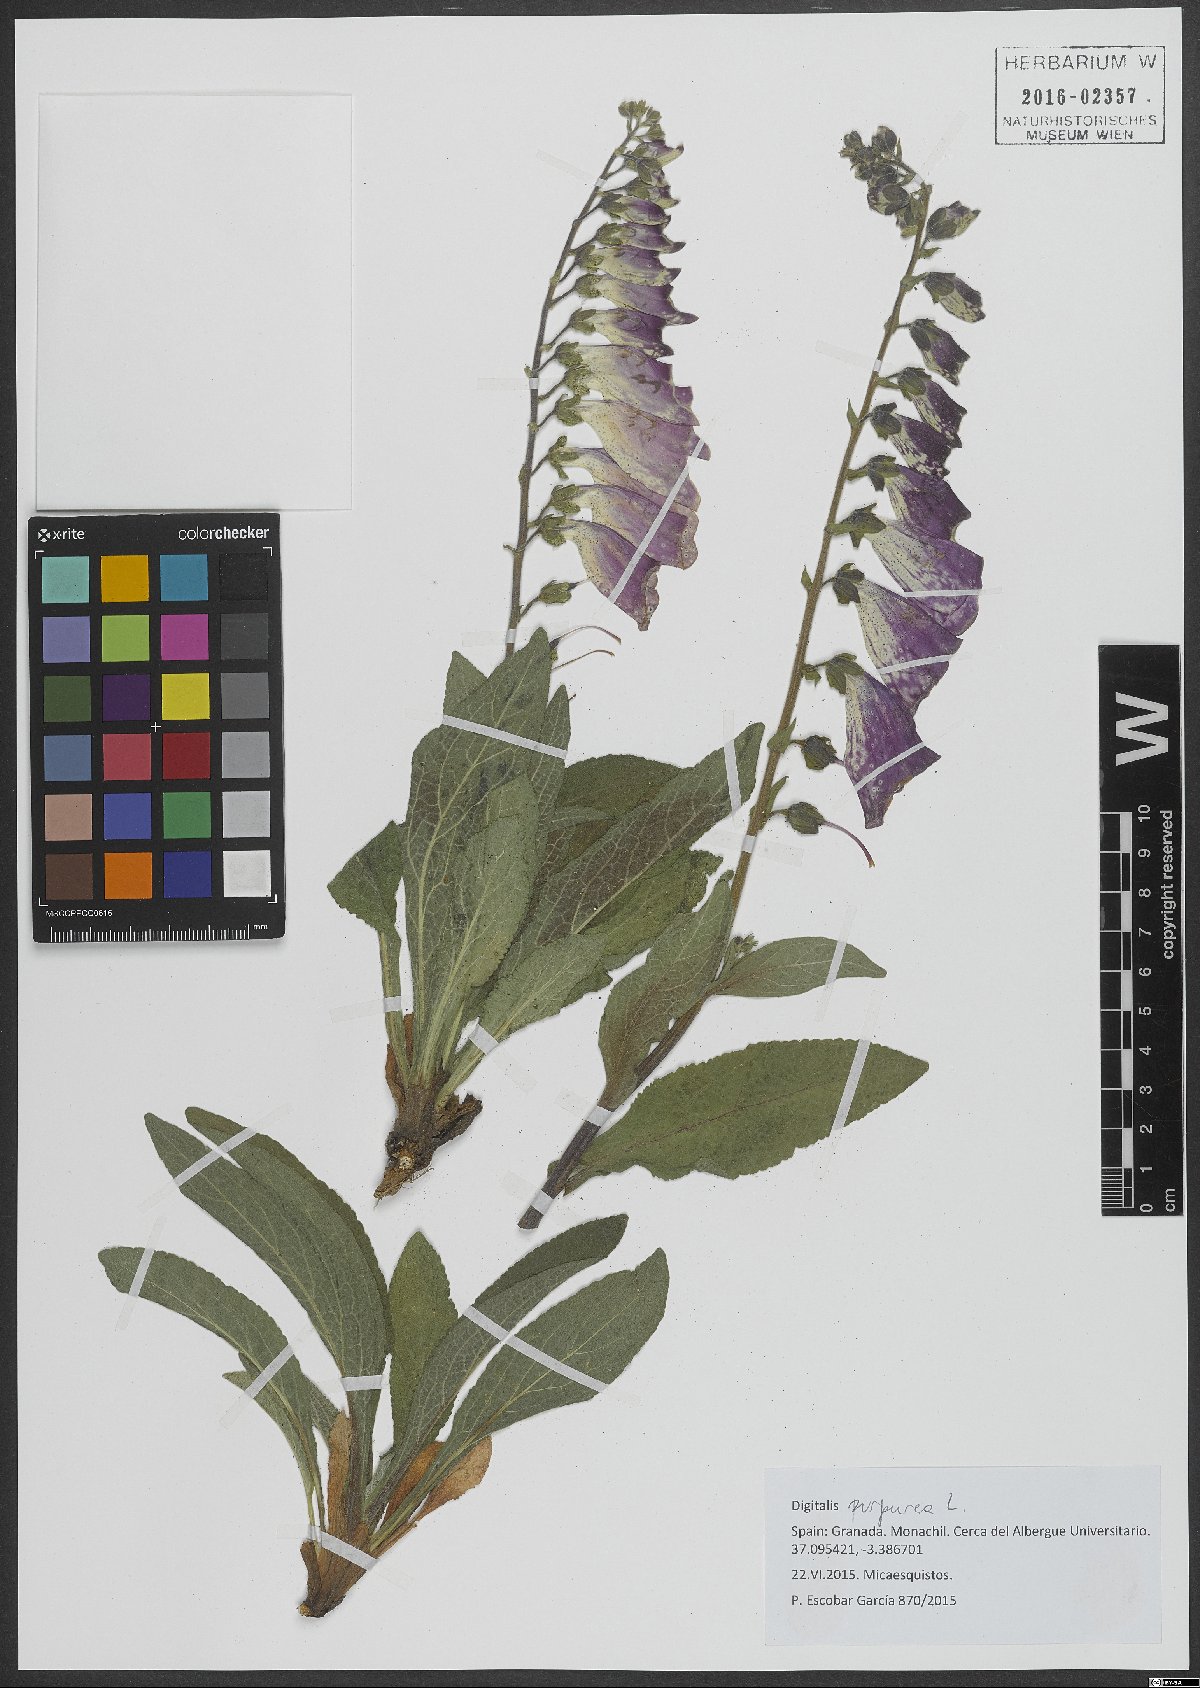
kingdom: Plantae
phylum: Tracheophyta
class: Magnoliopsida
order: Lamiales
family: Plantaginaceae
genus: Digitalis
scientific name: Digitalis purpurea
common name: Foxglove
